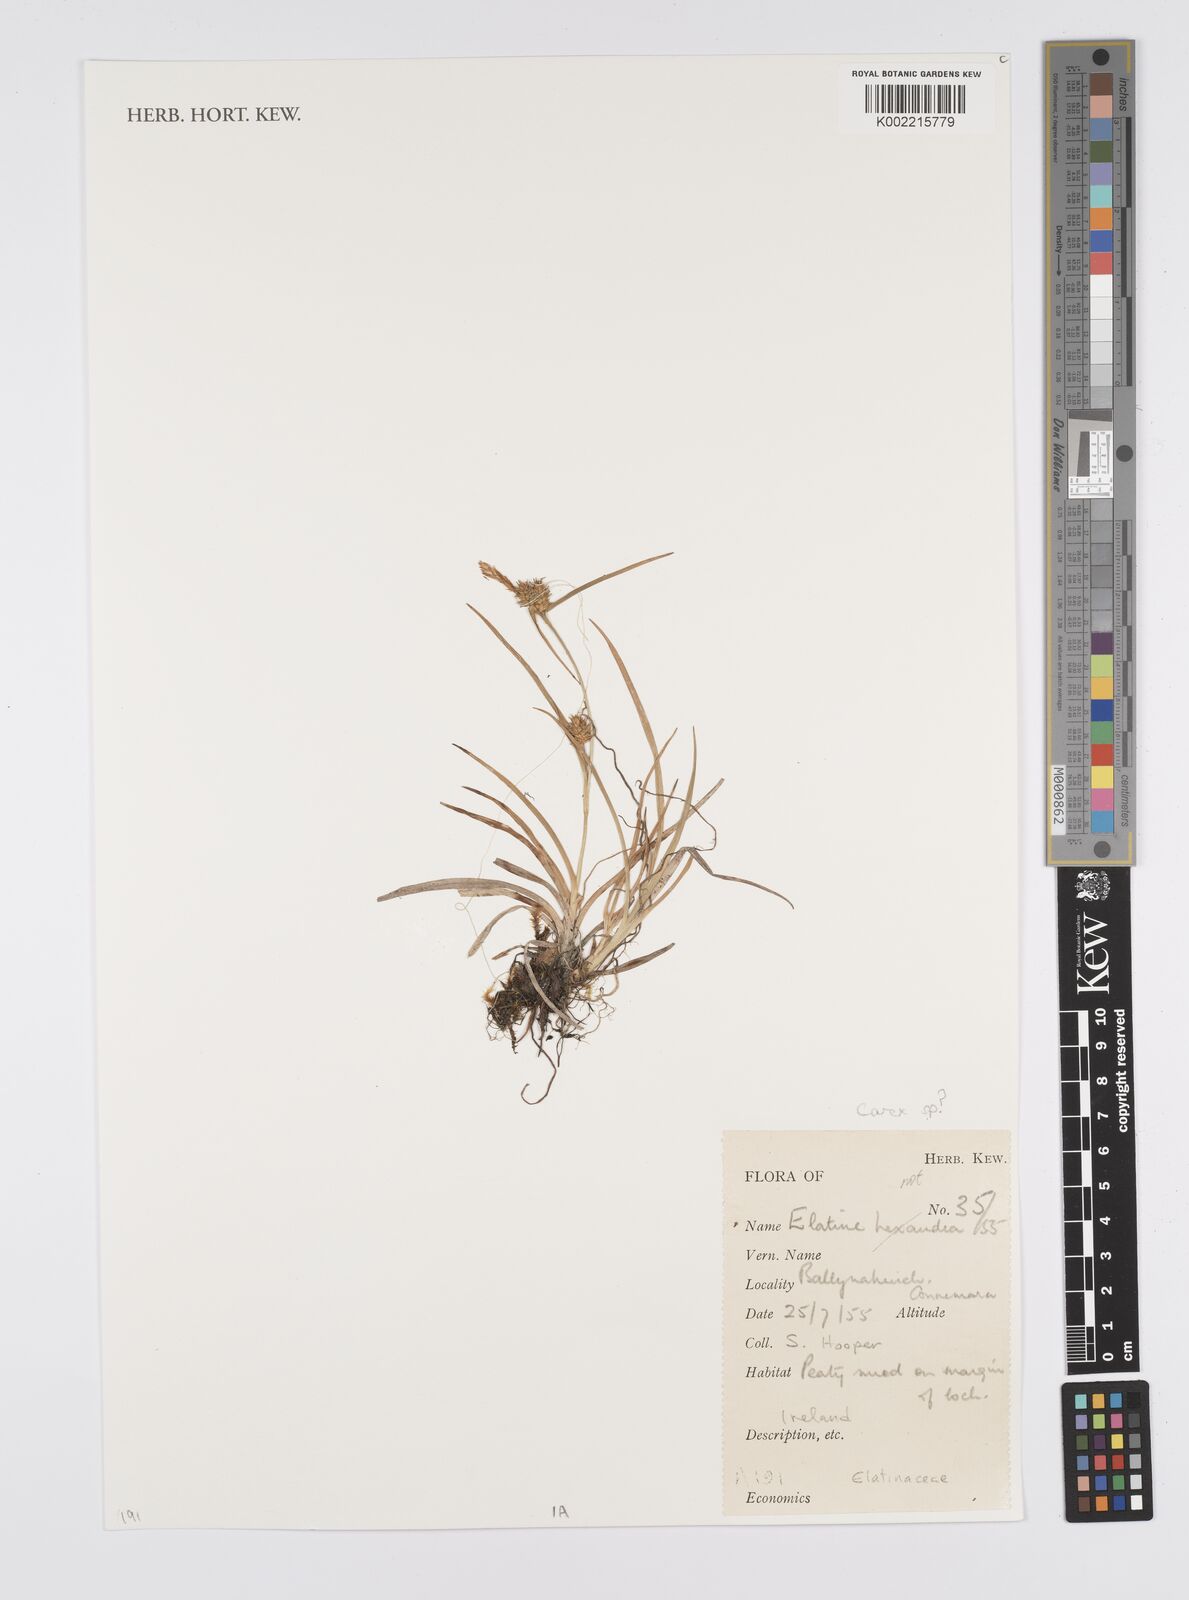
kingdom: Plantae
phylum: Tracheophyta
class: Liliopsida
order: Poales
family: Cyperaceae
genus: Carex
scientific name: Carex
